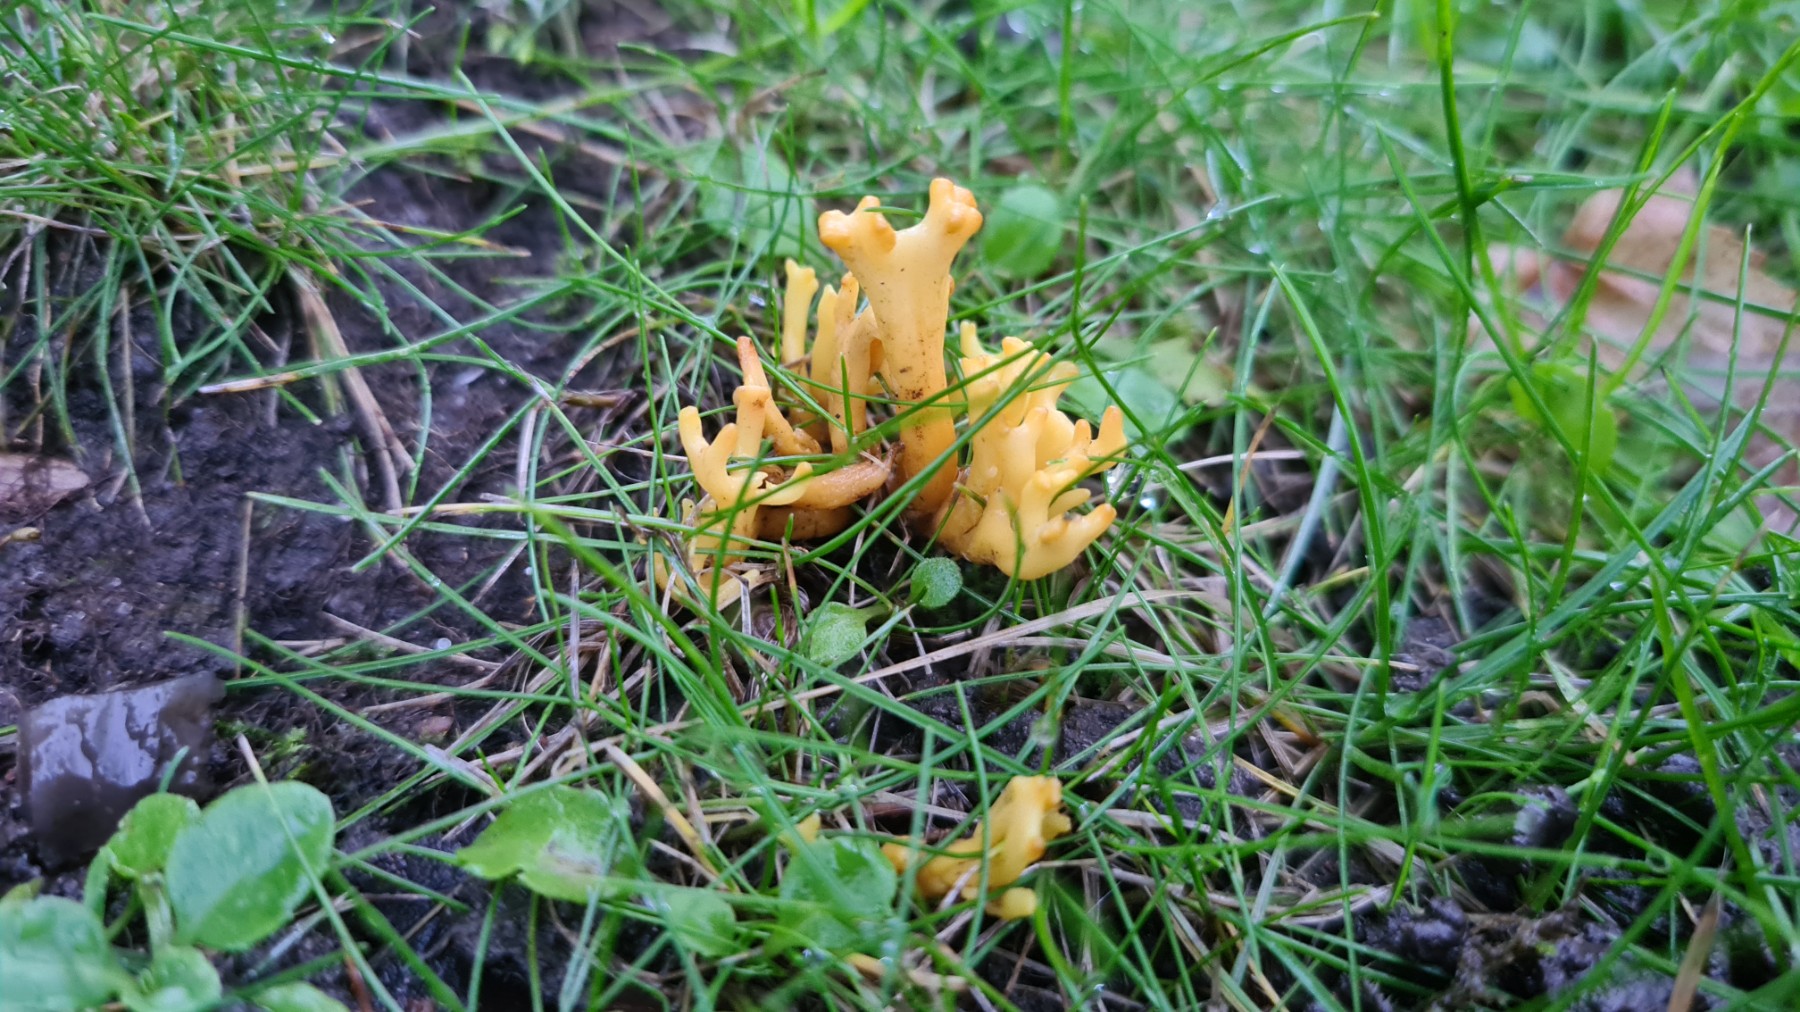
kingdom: Fungi
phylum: Basidiomycota
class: Agaricomycetes
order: Agaricales
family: Clavariaceae
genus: Clavulinopsis
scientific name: Clavulinopsis corniculata
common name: eng-køllesvamp
